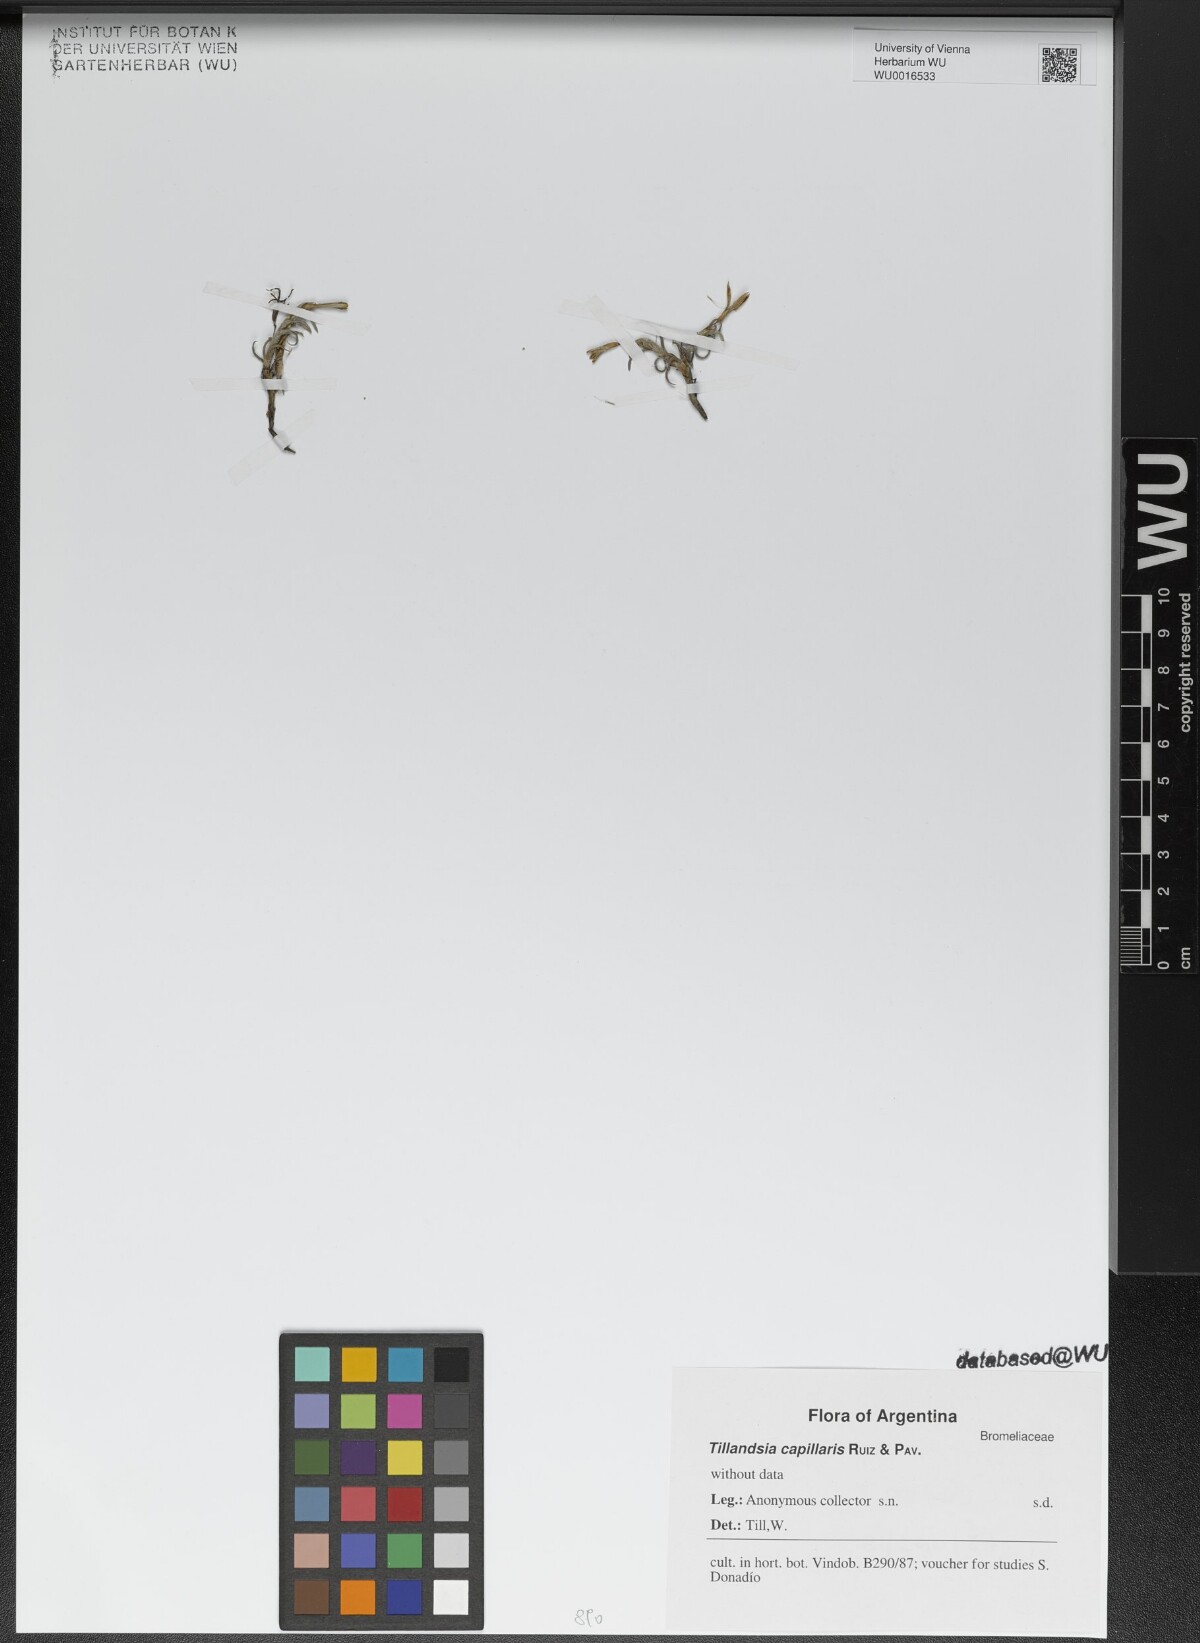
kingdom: Plantae
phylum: Tracheophyta
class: Liliopsida
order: Poales
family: Bromeliaceae
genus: Tillandsia
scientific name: Tillandsia capillaris
